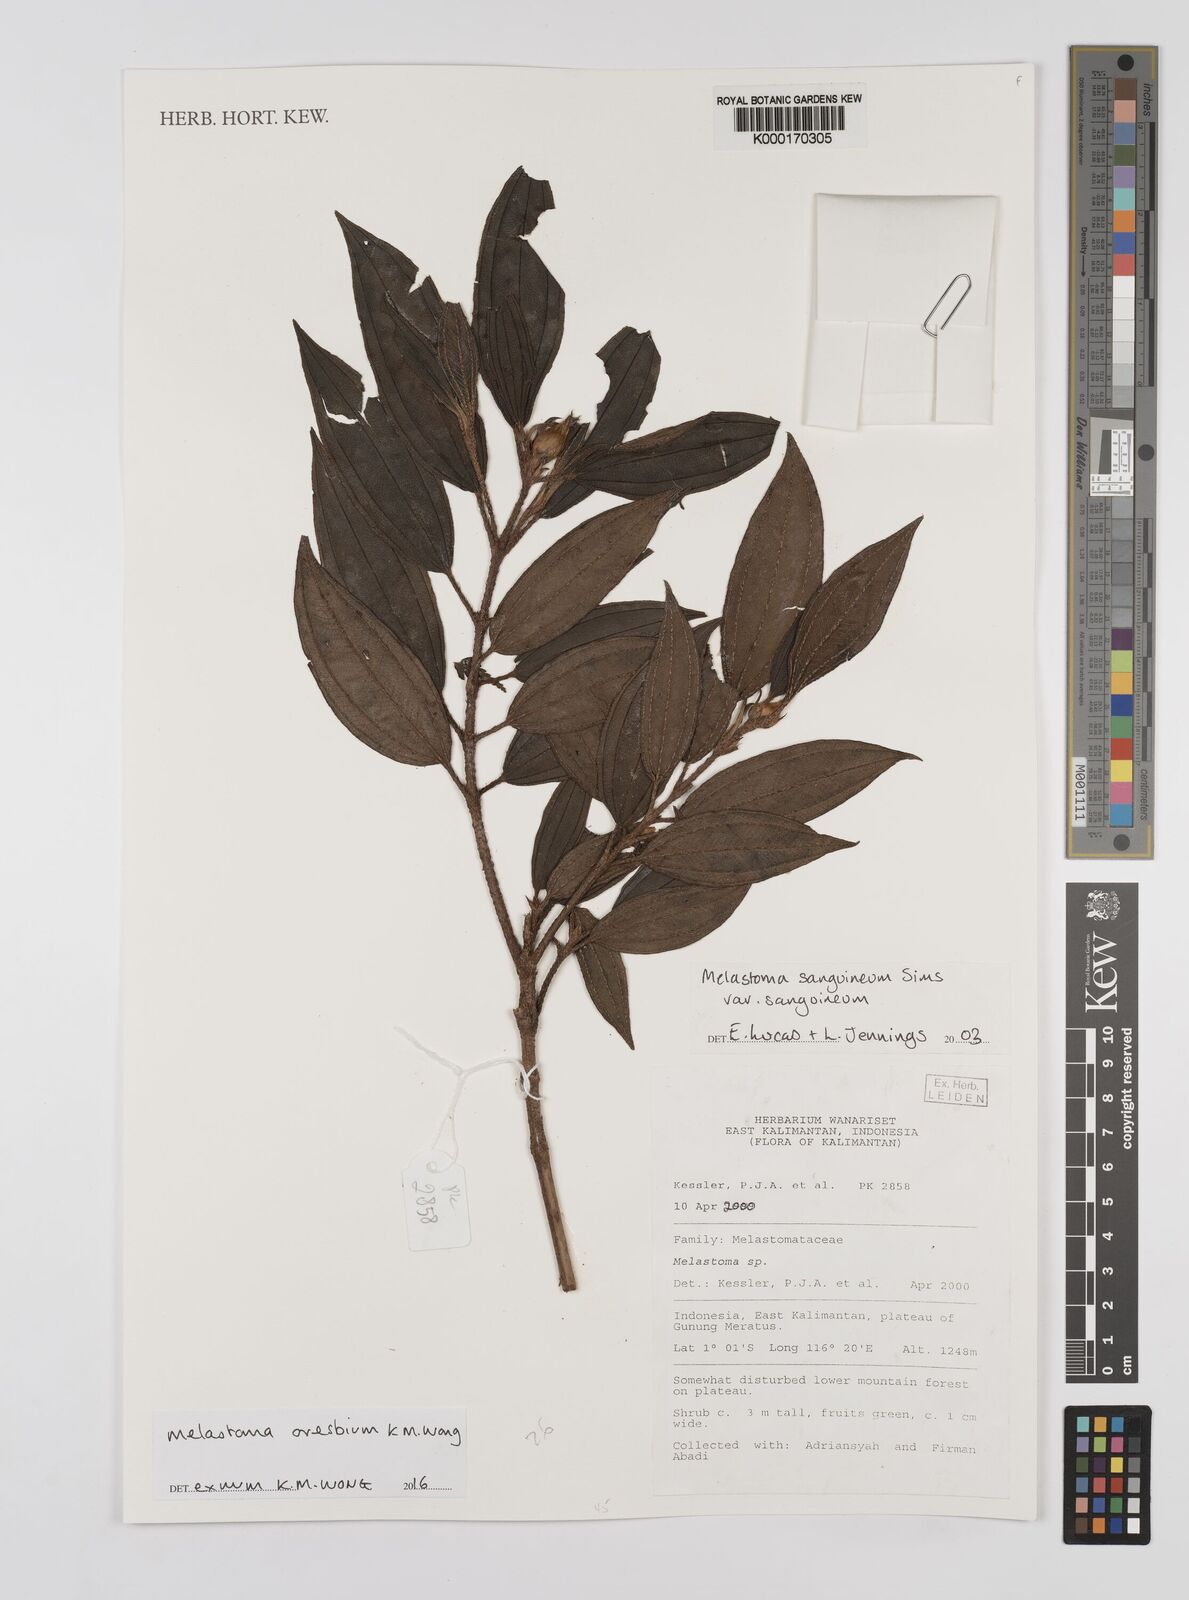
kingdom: Plantae
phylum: Tracheophyta
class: Magnoliopsida
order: Myrtales
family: Melastomataceae
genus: Melastoma
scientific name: Melastoma
